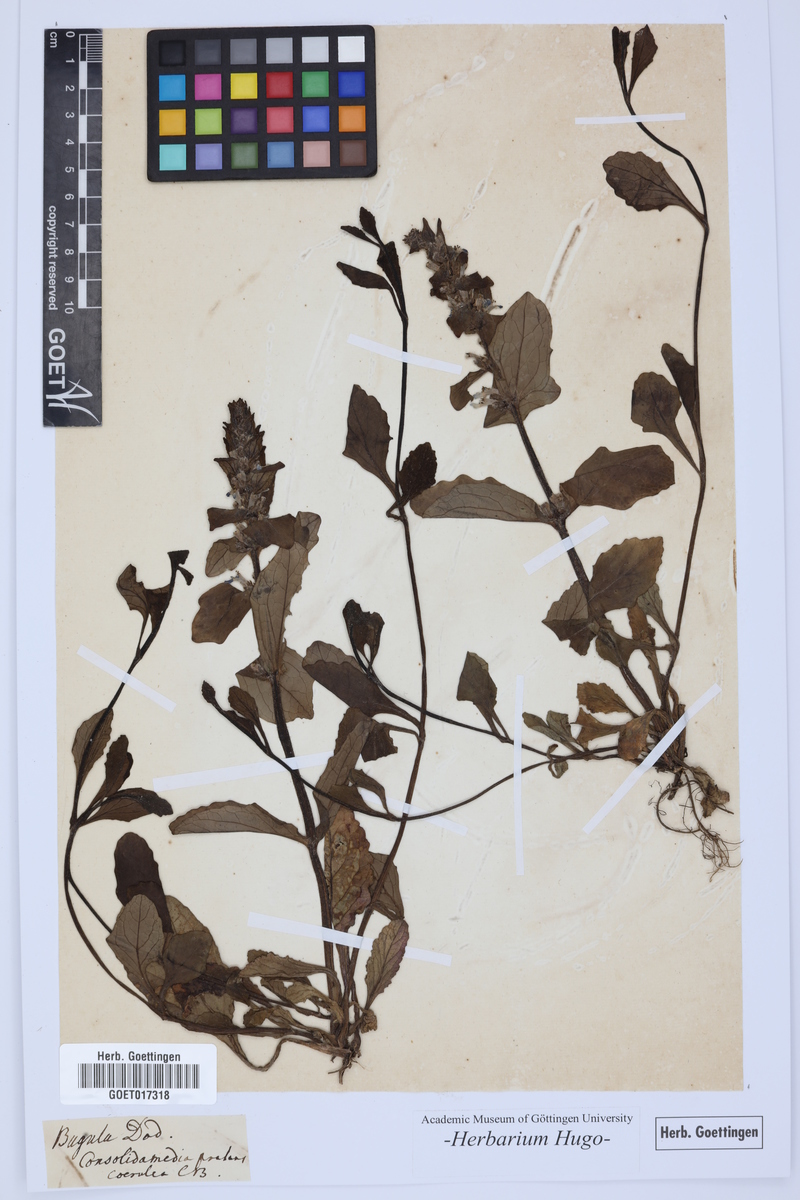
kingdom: Plantae
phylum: Tracheophyta
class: Magnoliopsida
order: Lamiales
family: Lamiaceae
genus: Ajuga
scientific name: Ajuga pyramidalis
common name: Pyramid bugle
